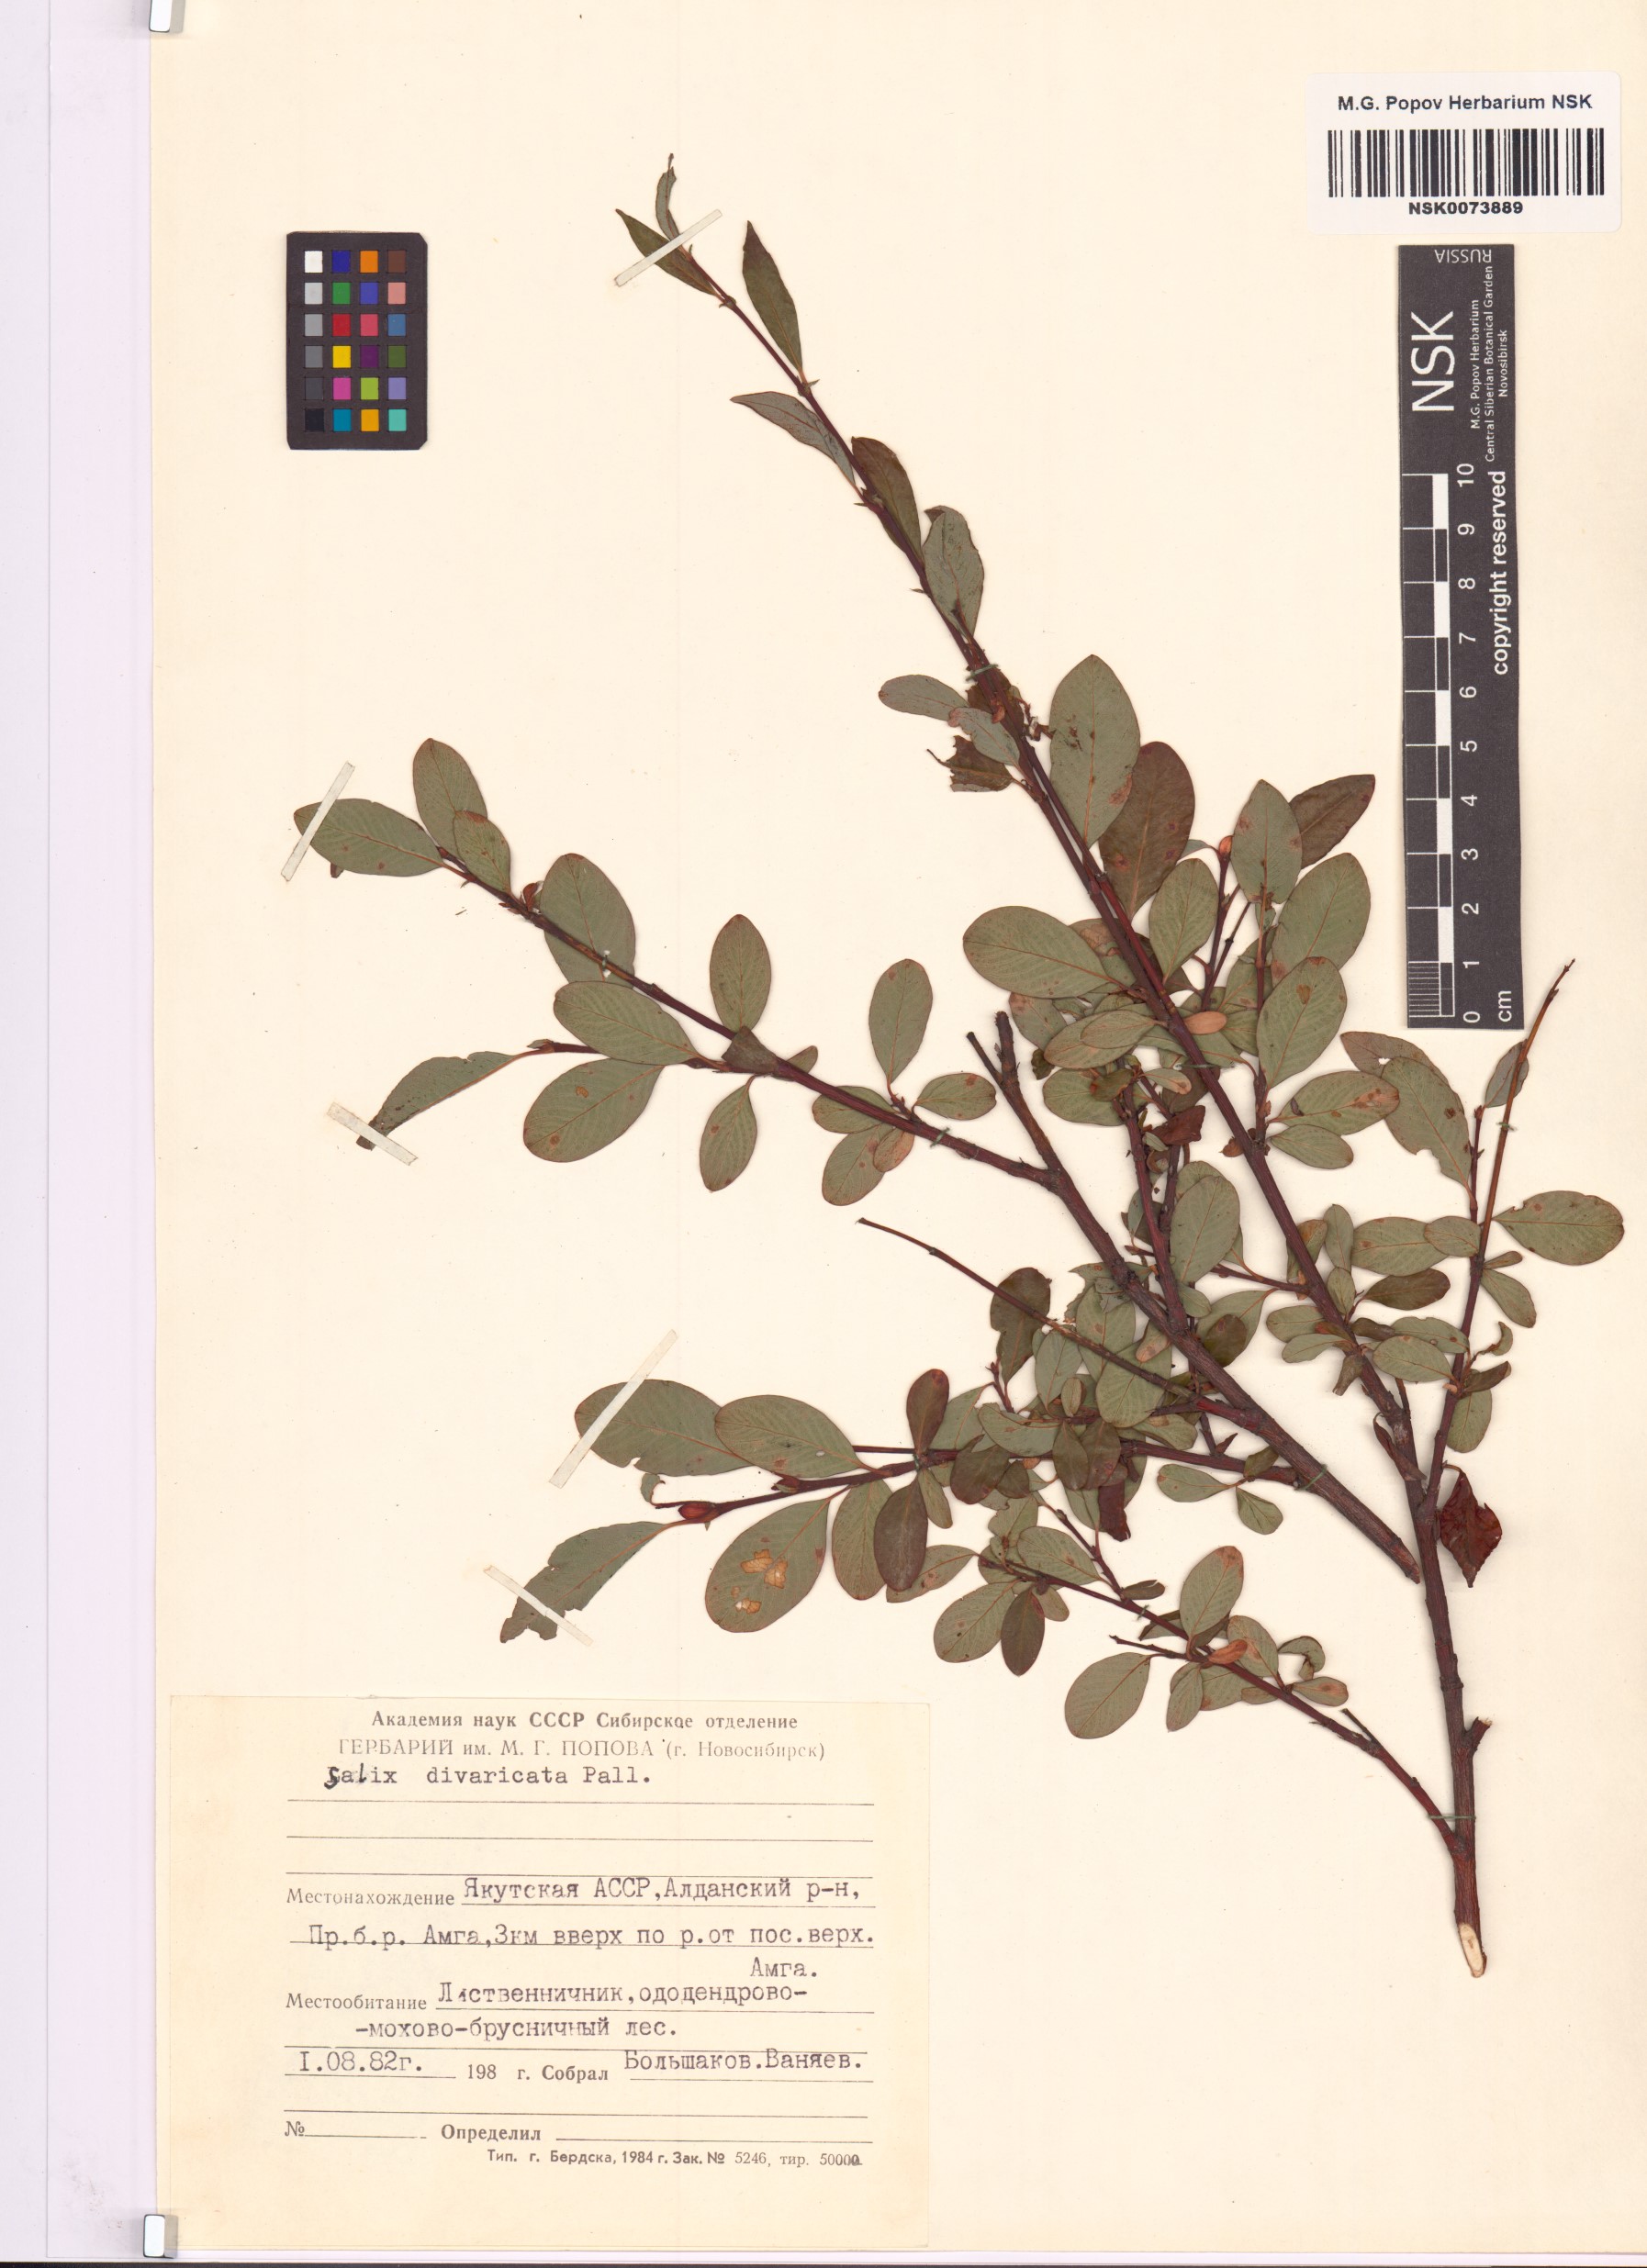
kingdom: Plantae
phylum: Tracheophyta
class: Magnoliopsida
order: Malpighiales
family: Salicaceae
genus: Salix
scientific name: Salix divaricata
